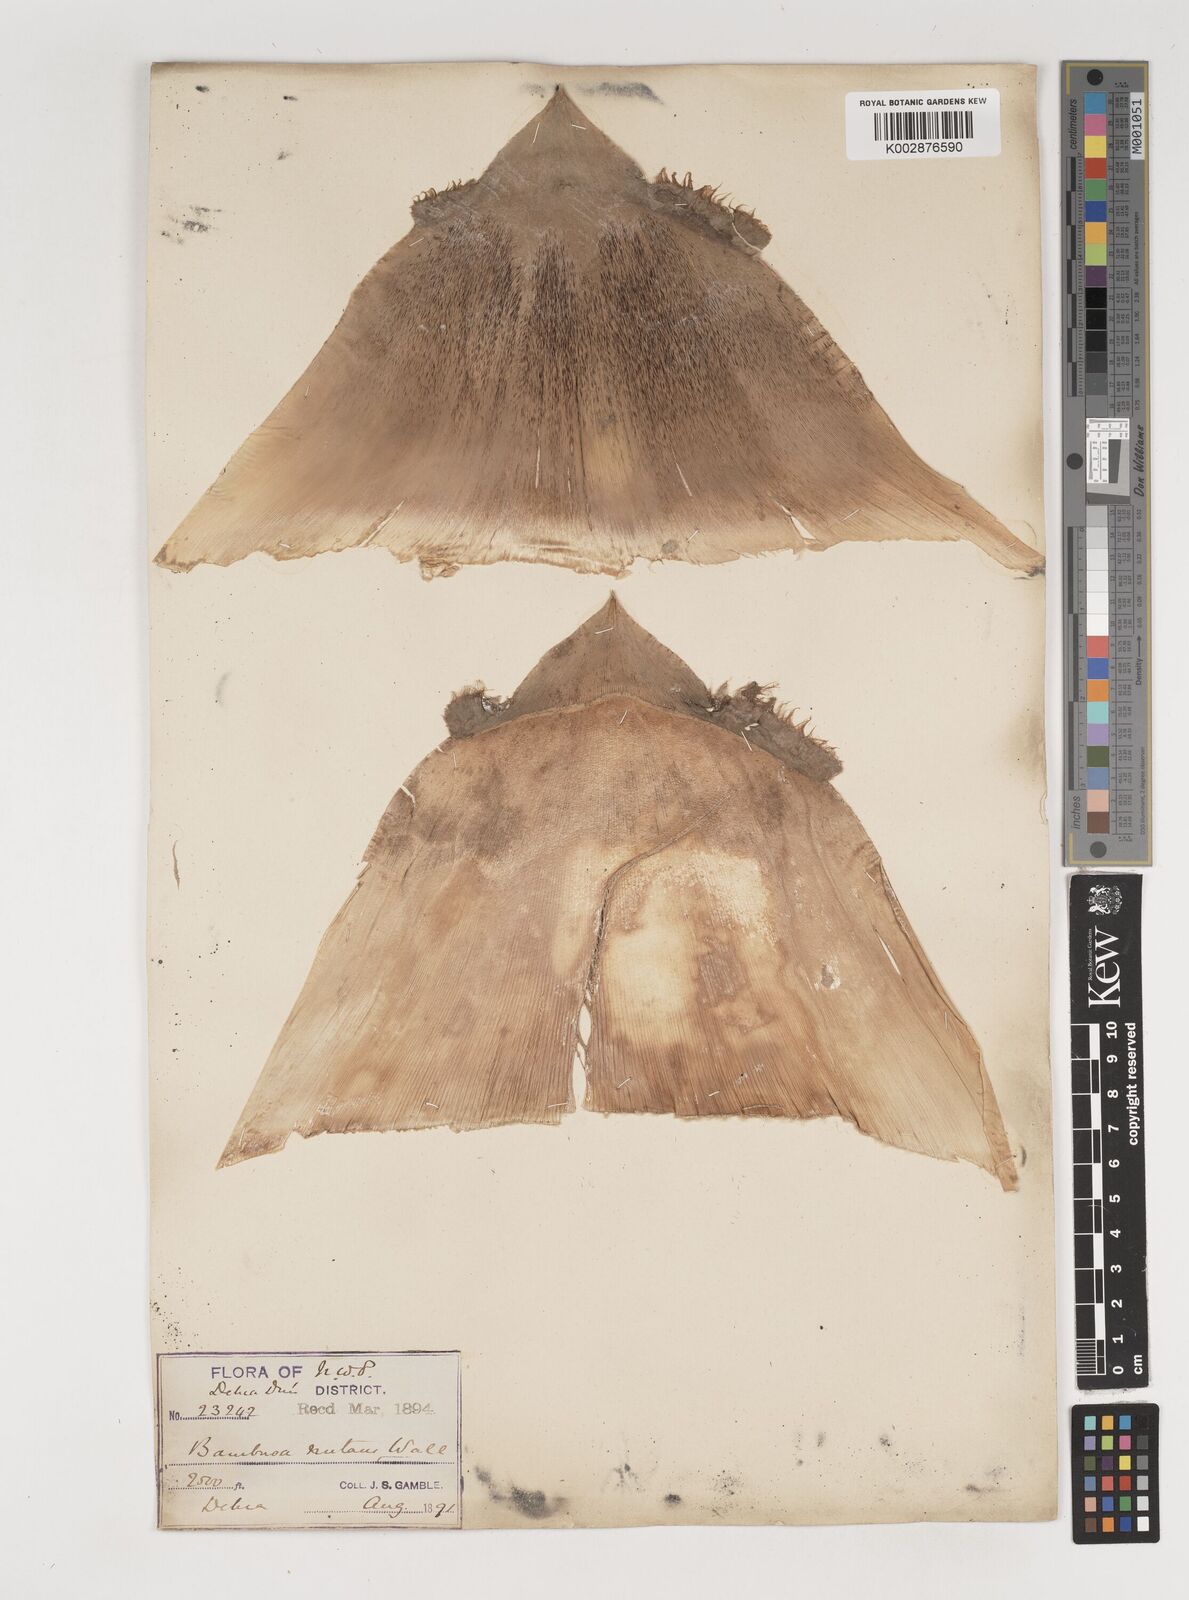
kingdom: Plantae
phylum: Tracheophyta
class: Liliopsida
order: Poales
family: Poaceae
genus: Bambusa
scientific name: Bambusa nutans
